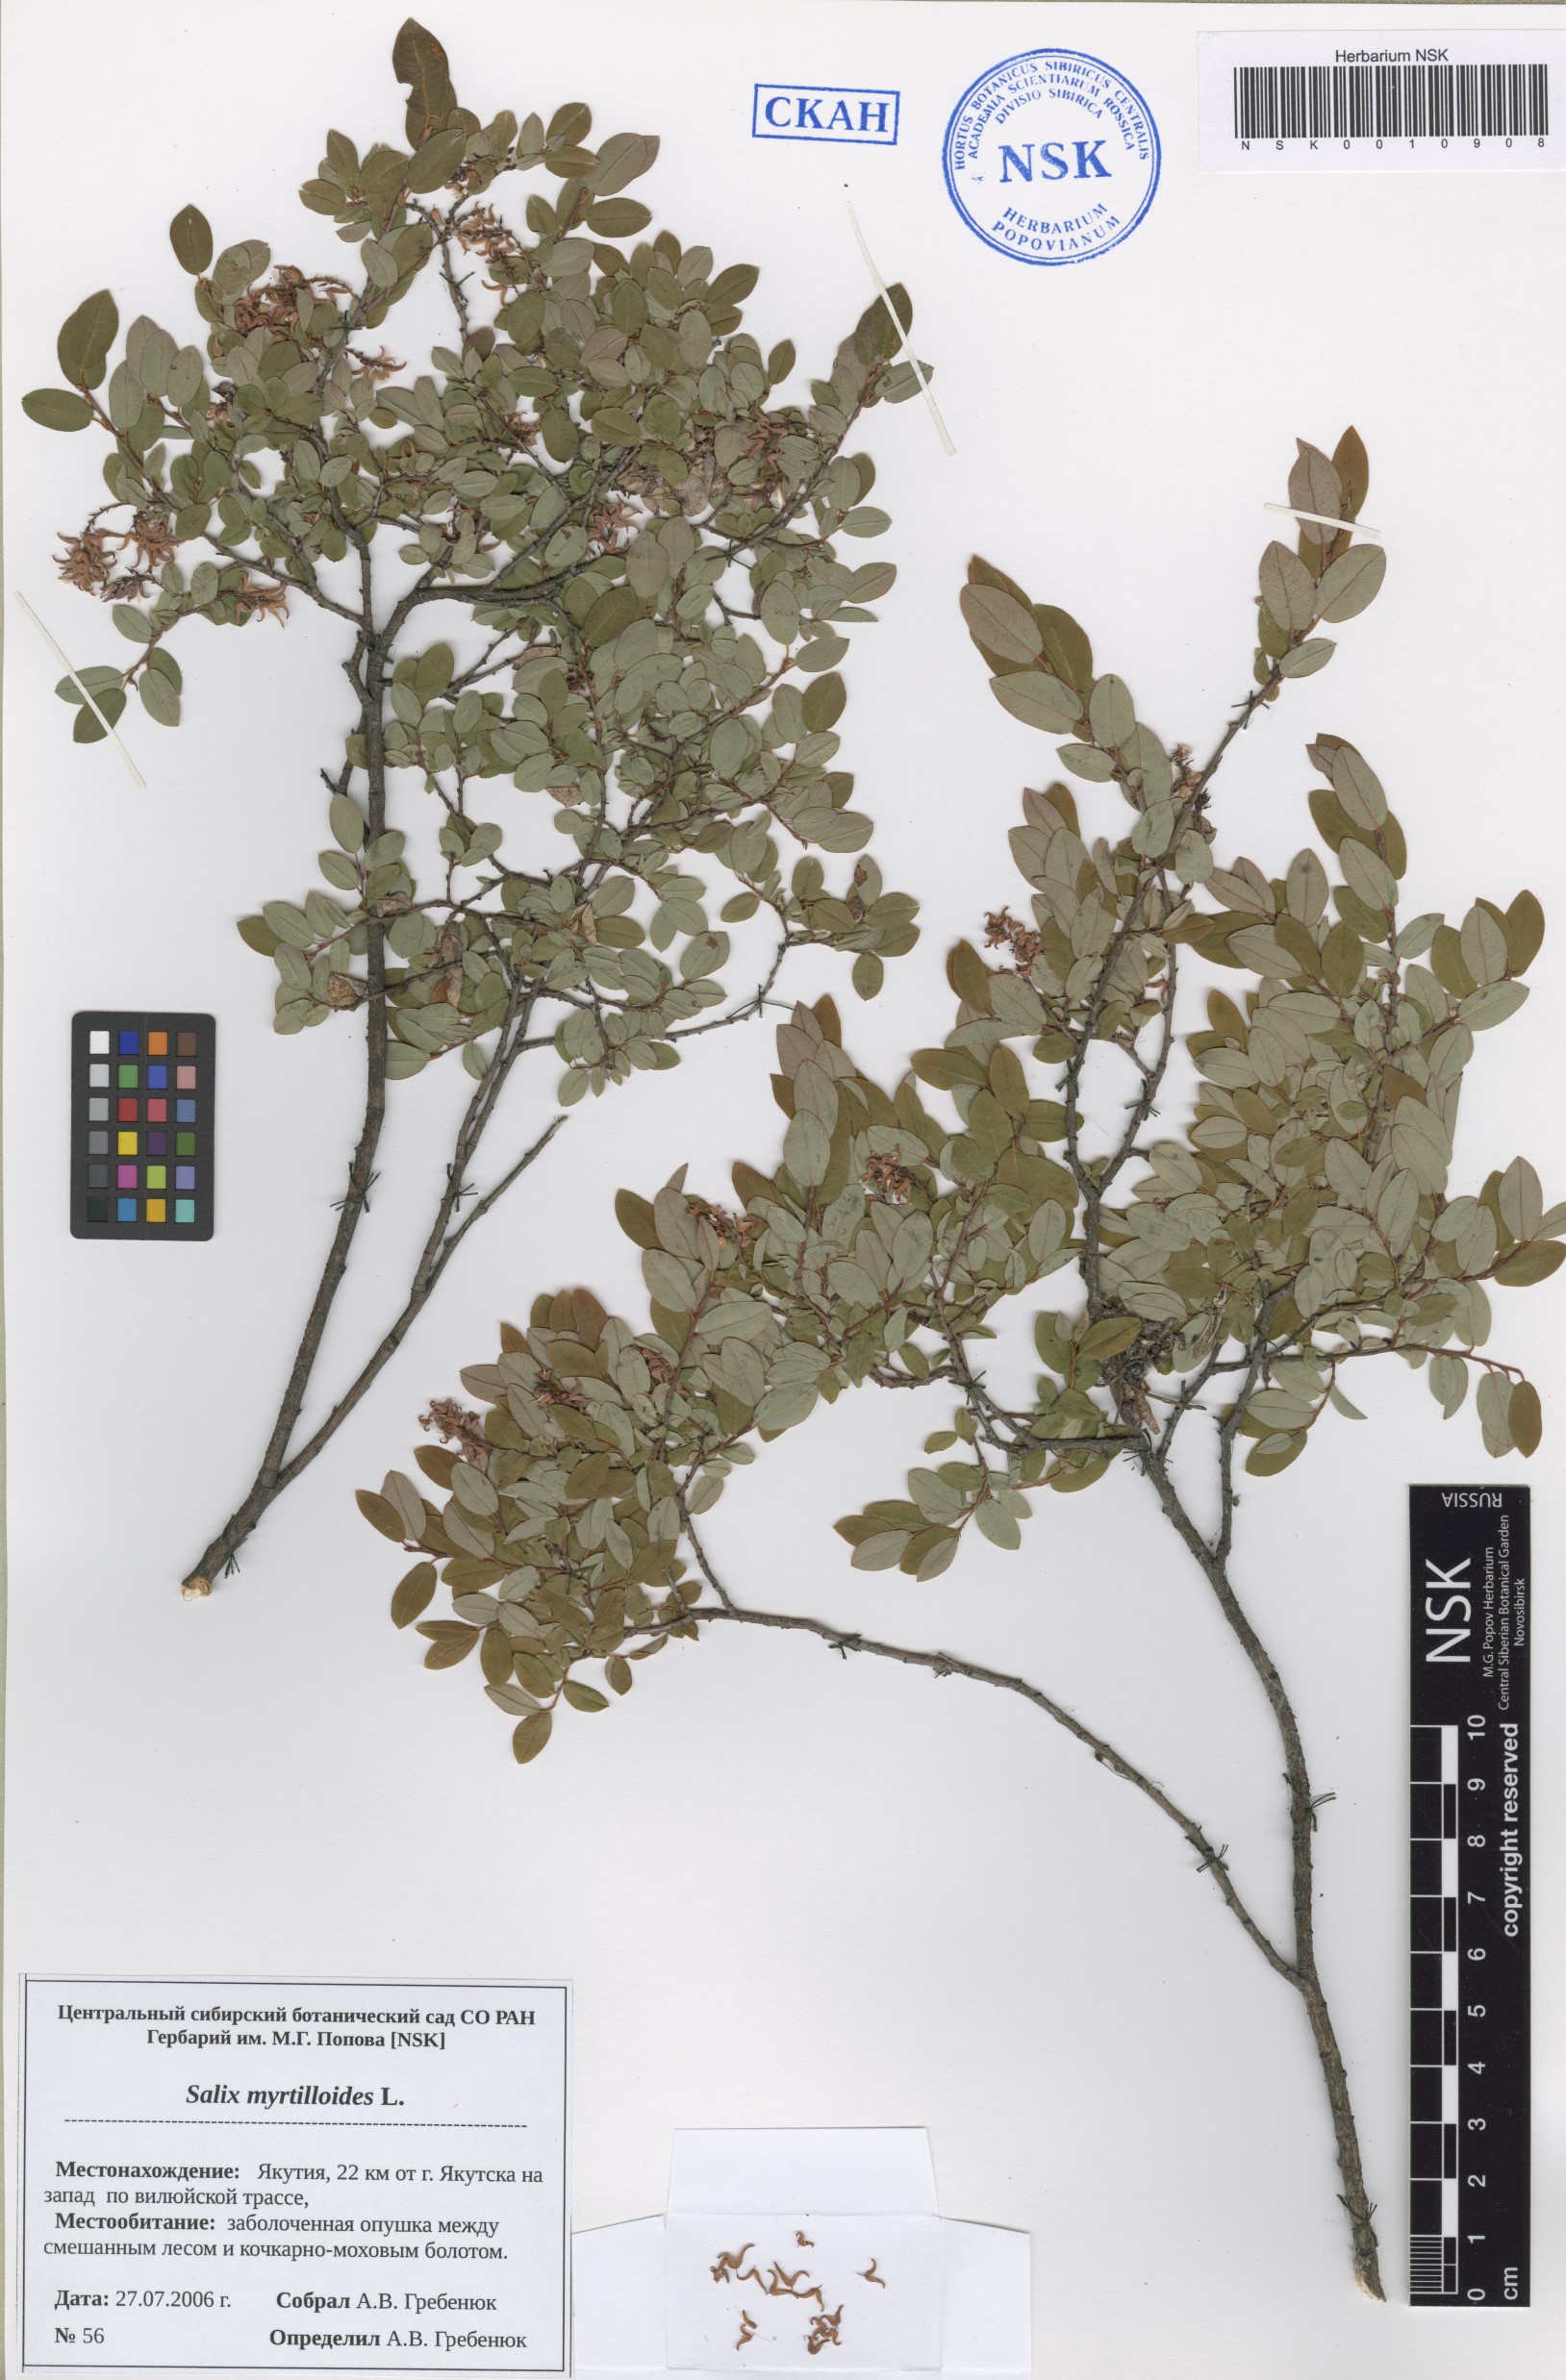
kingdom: Plantae
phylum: Tracheophyta
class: Magnoliopsida
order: Malpighiales
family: Salicaceae
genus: Salix
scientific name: Salix myrtilloides
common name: Myrtle-leaved willow
